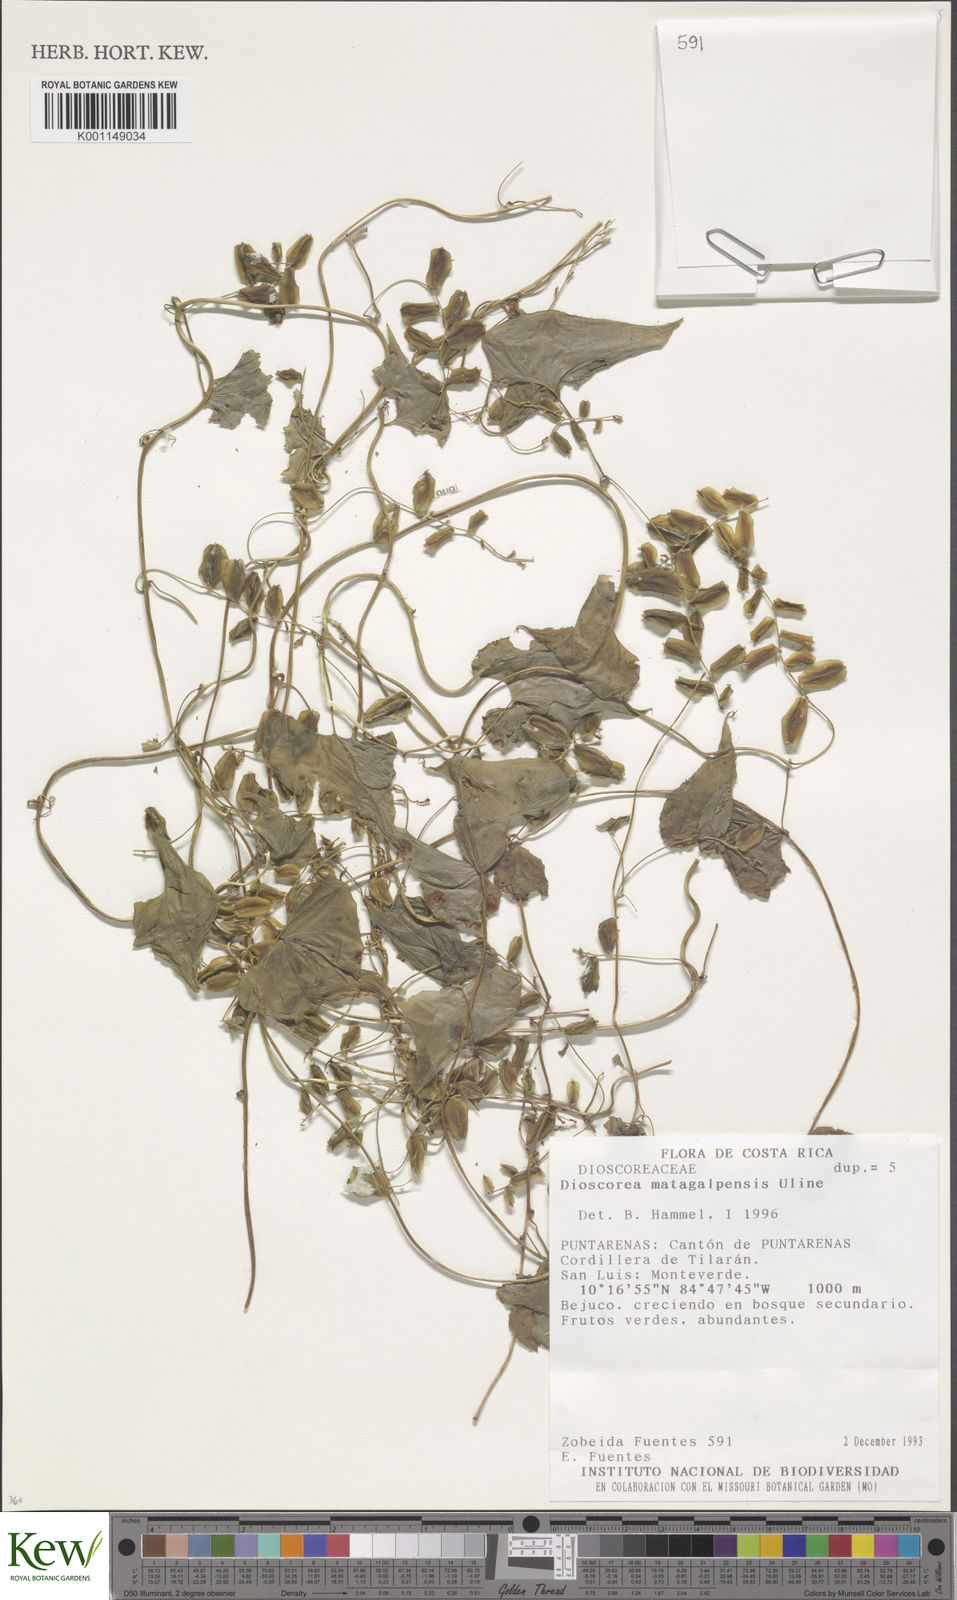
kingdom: Plantae
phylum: Tracheophyta
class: Liliopsida
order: Dioscoreales
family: Dioscoreaceae
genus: Dioscorea
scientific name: Dioscorea matagalpensis
